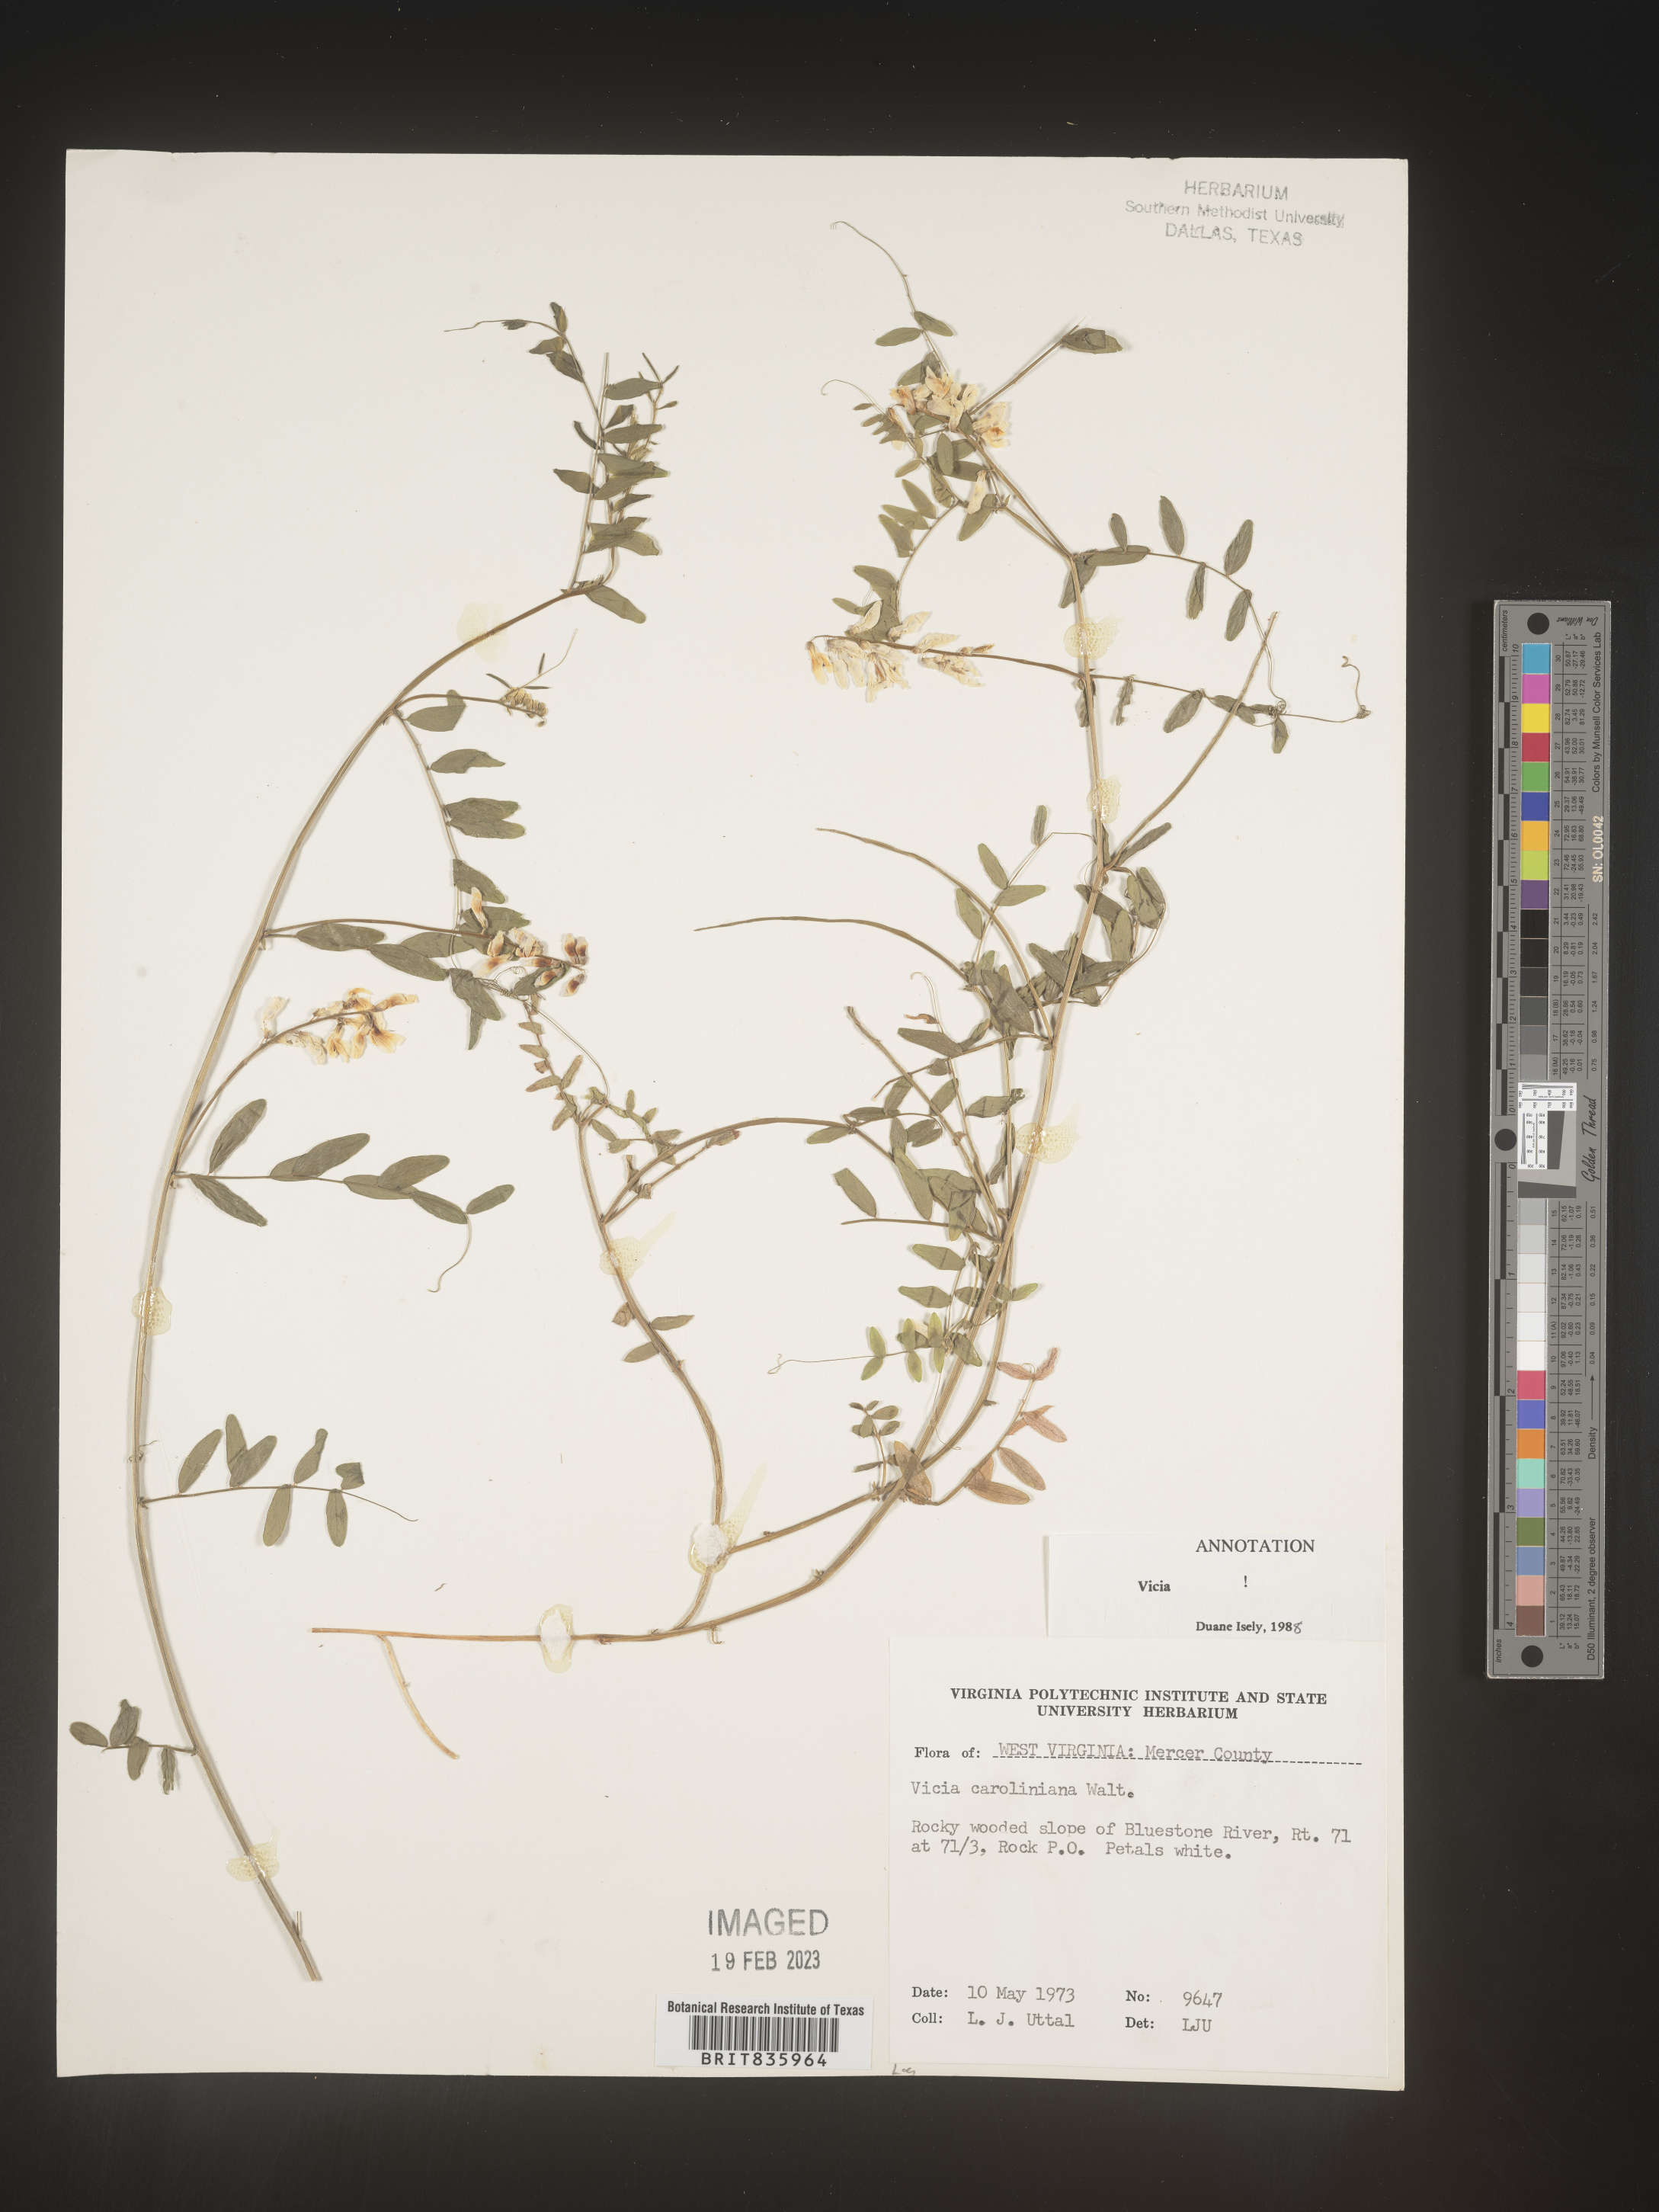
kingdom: Plantae
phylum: Tracheophyta
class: Magnoliopsida
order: Fabales
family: Fabaceae
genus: Vicia
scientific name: Vicia caroliniana
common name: Carolina vetch
